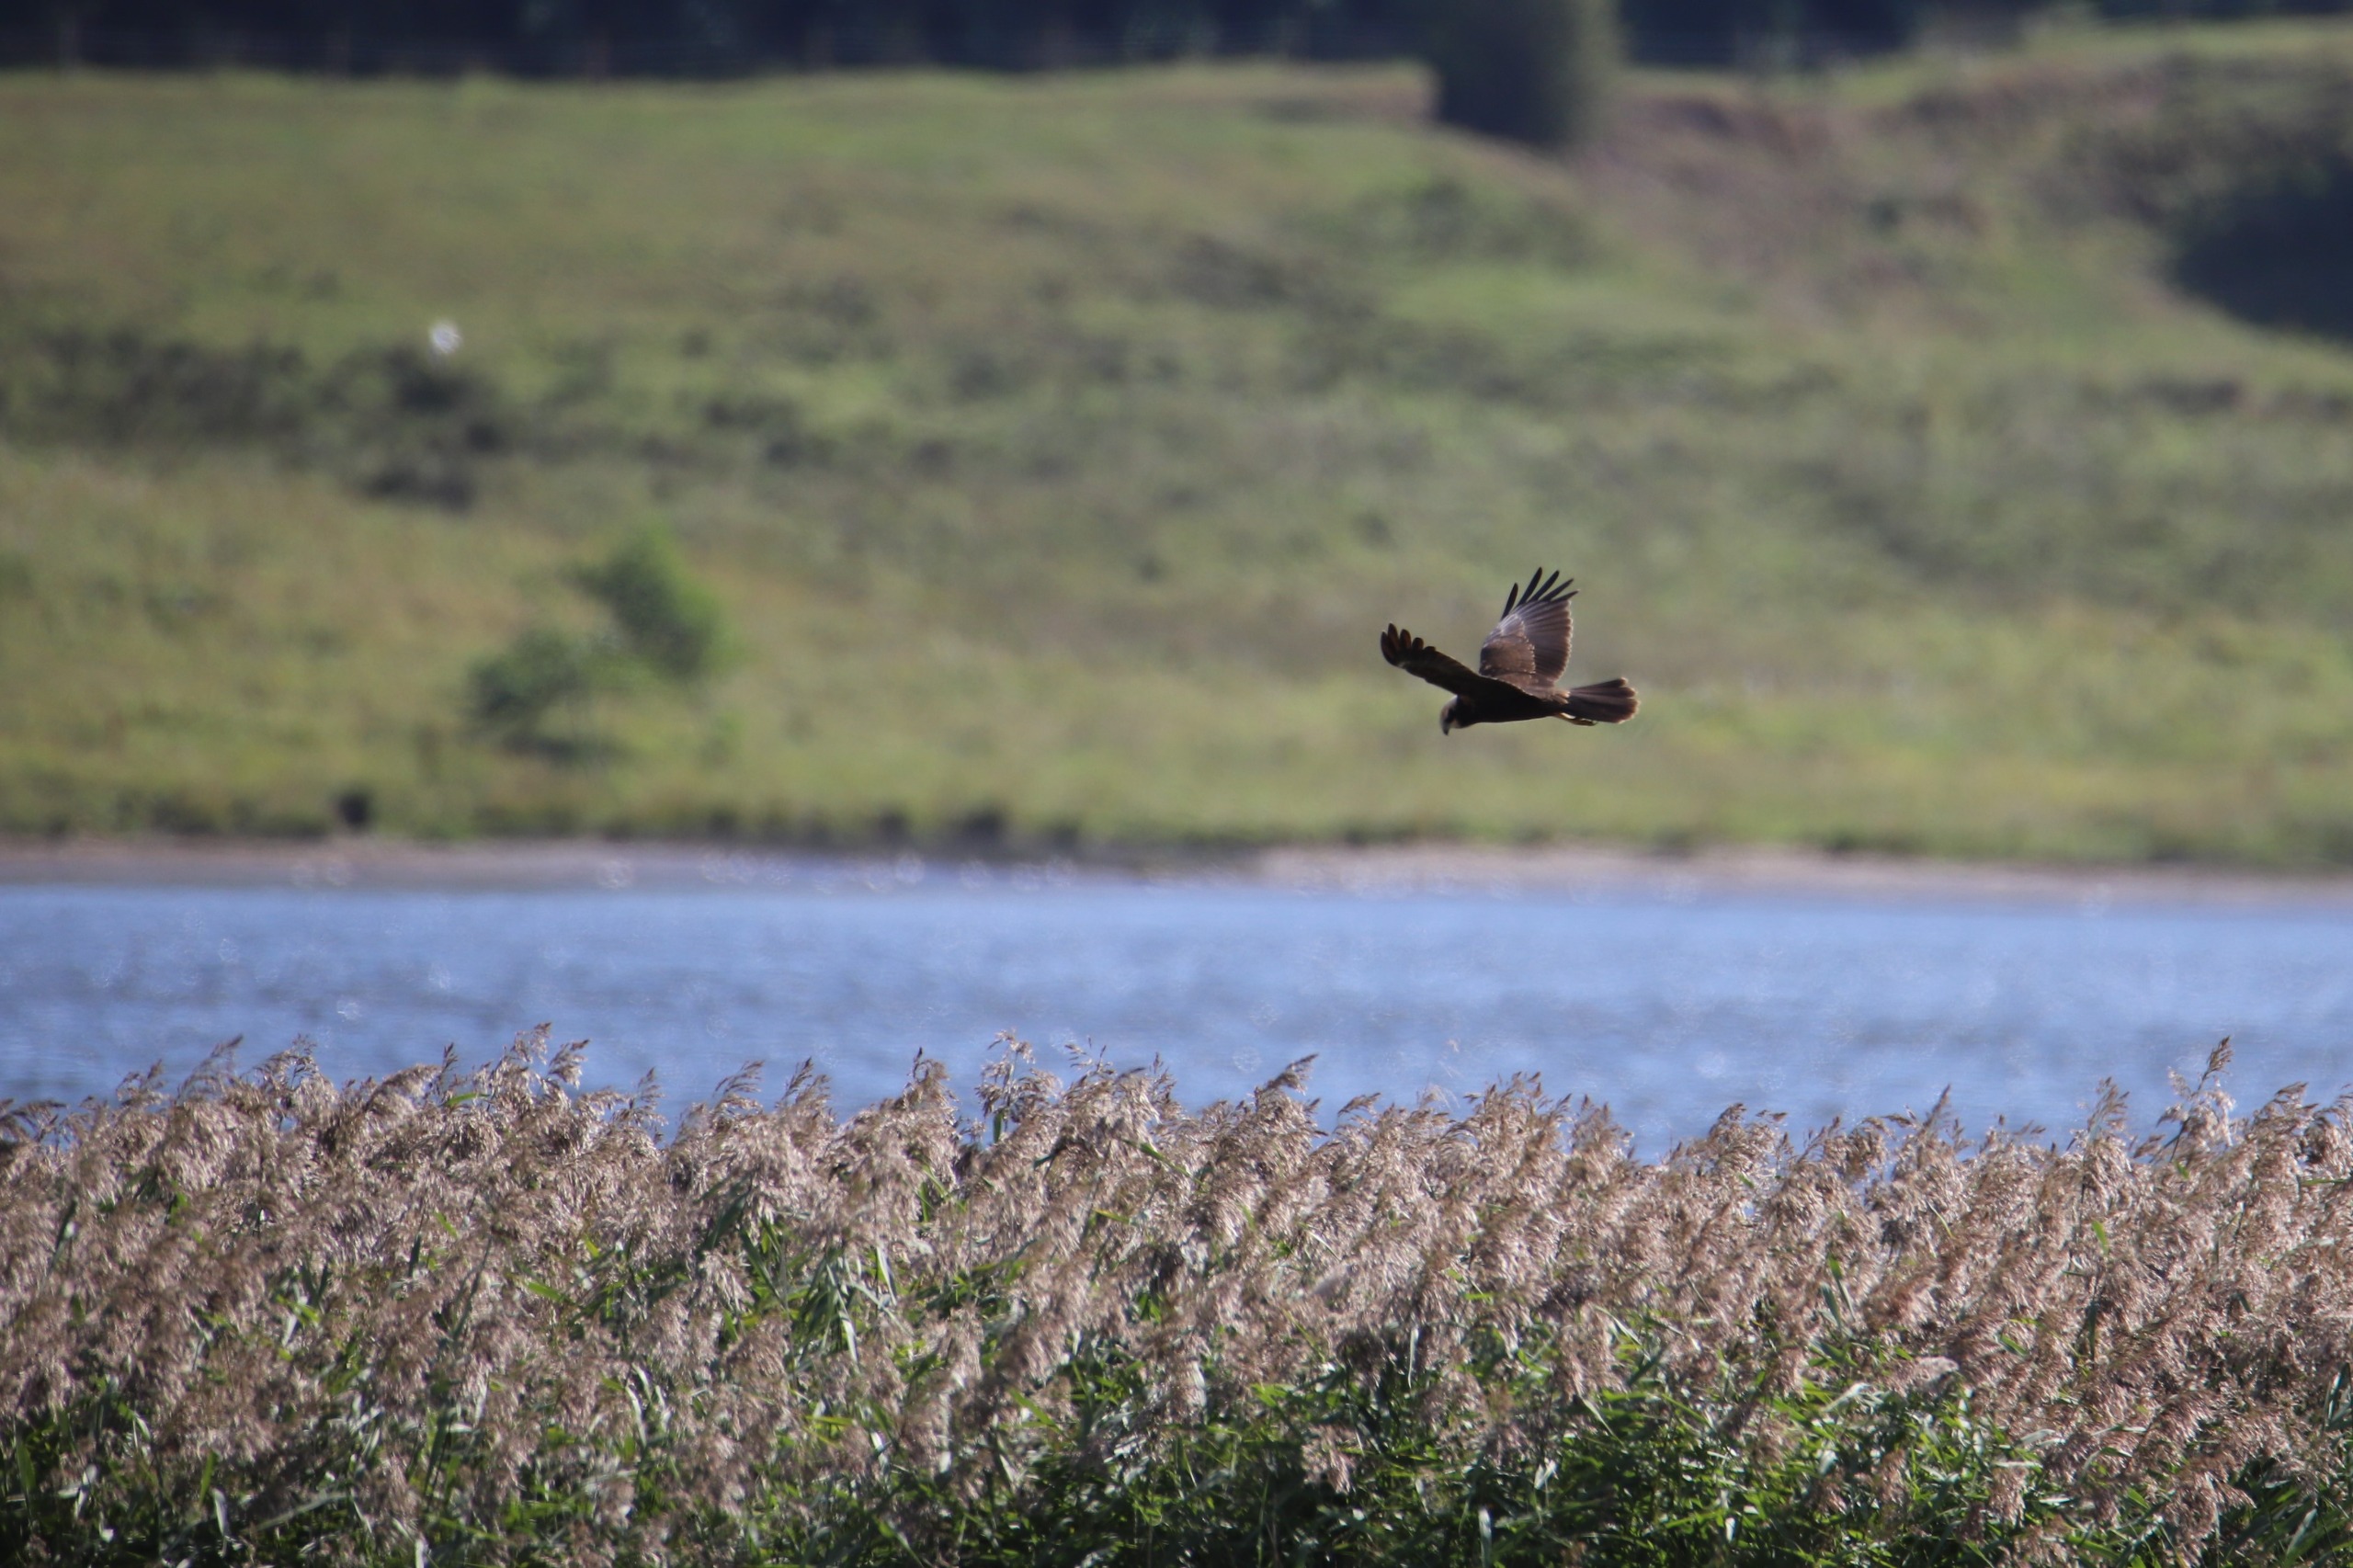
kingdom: Animalia
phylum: Chordata
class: Aves
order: Accipitriformes
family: Accipitridae
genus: Circus
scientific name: Circus aeruginosus
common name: Rørhøg
